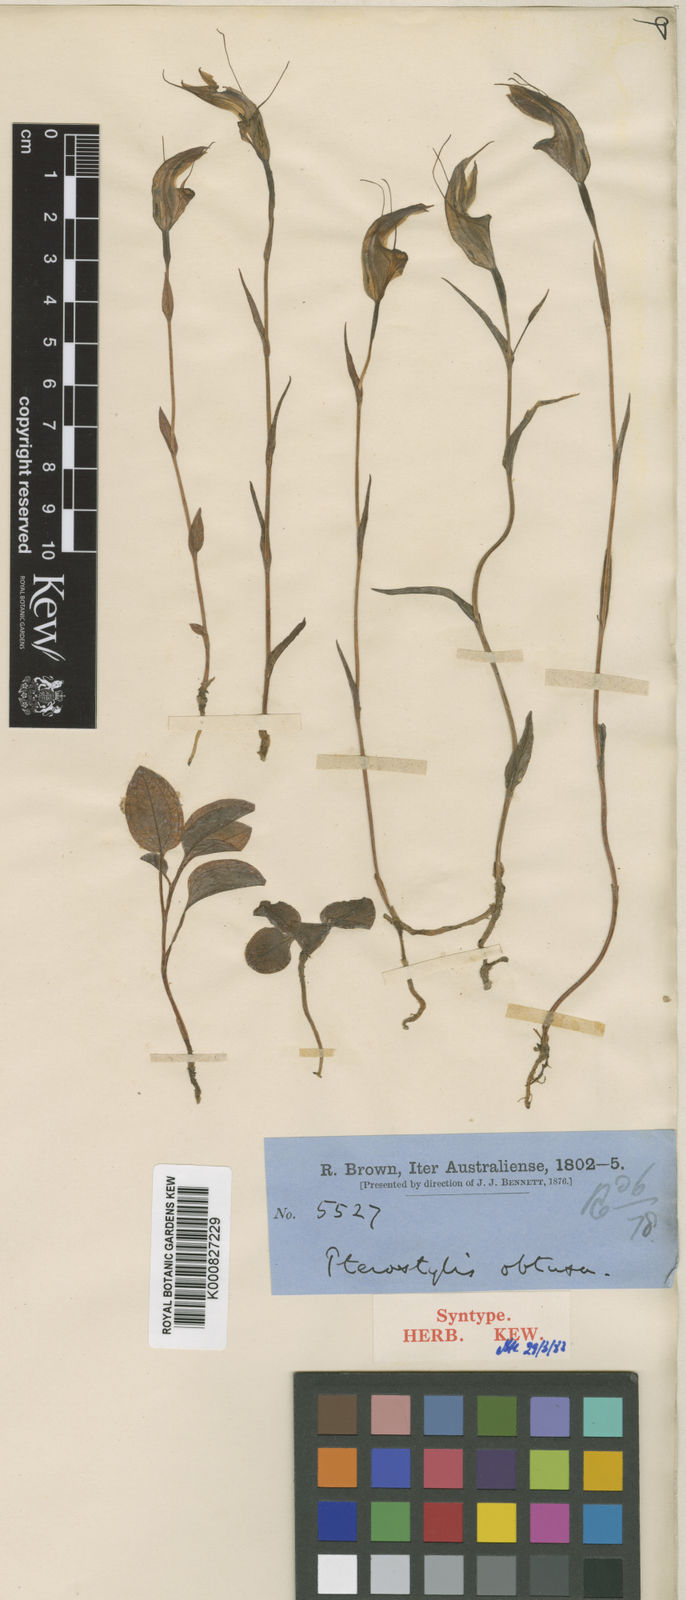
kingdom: Plantae
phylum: Tracheophyta
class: Liliopsida
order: Asparagales
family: Orchidaceae
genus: Pterostylis
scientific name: Pterostylis obtusa
